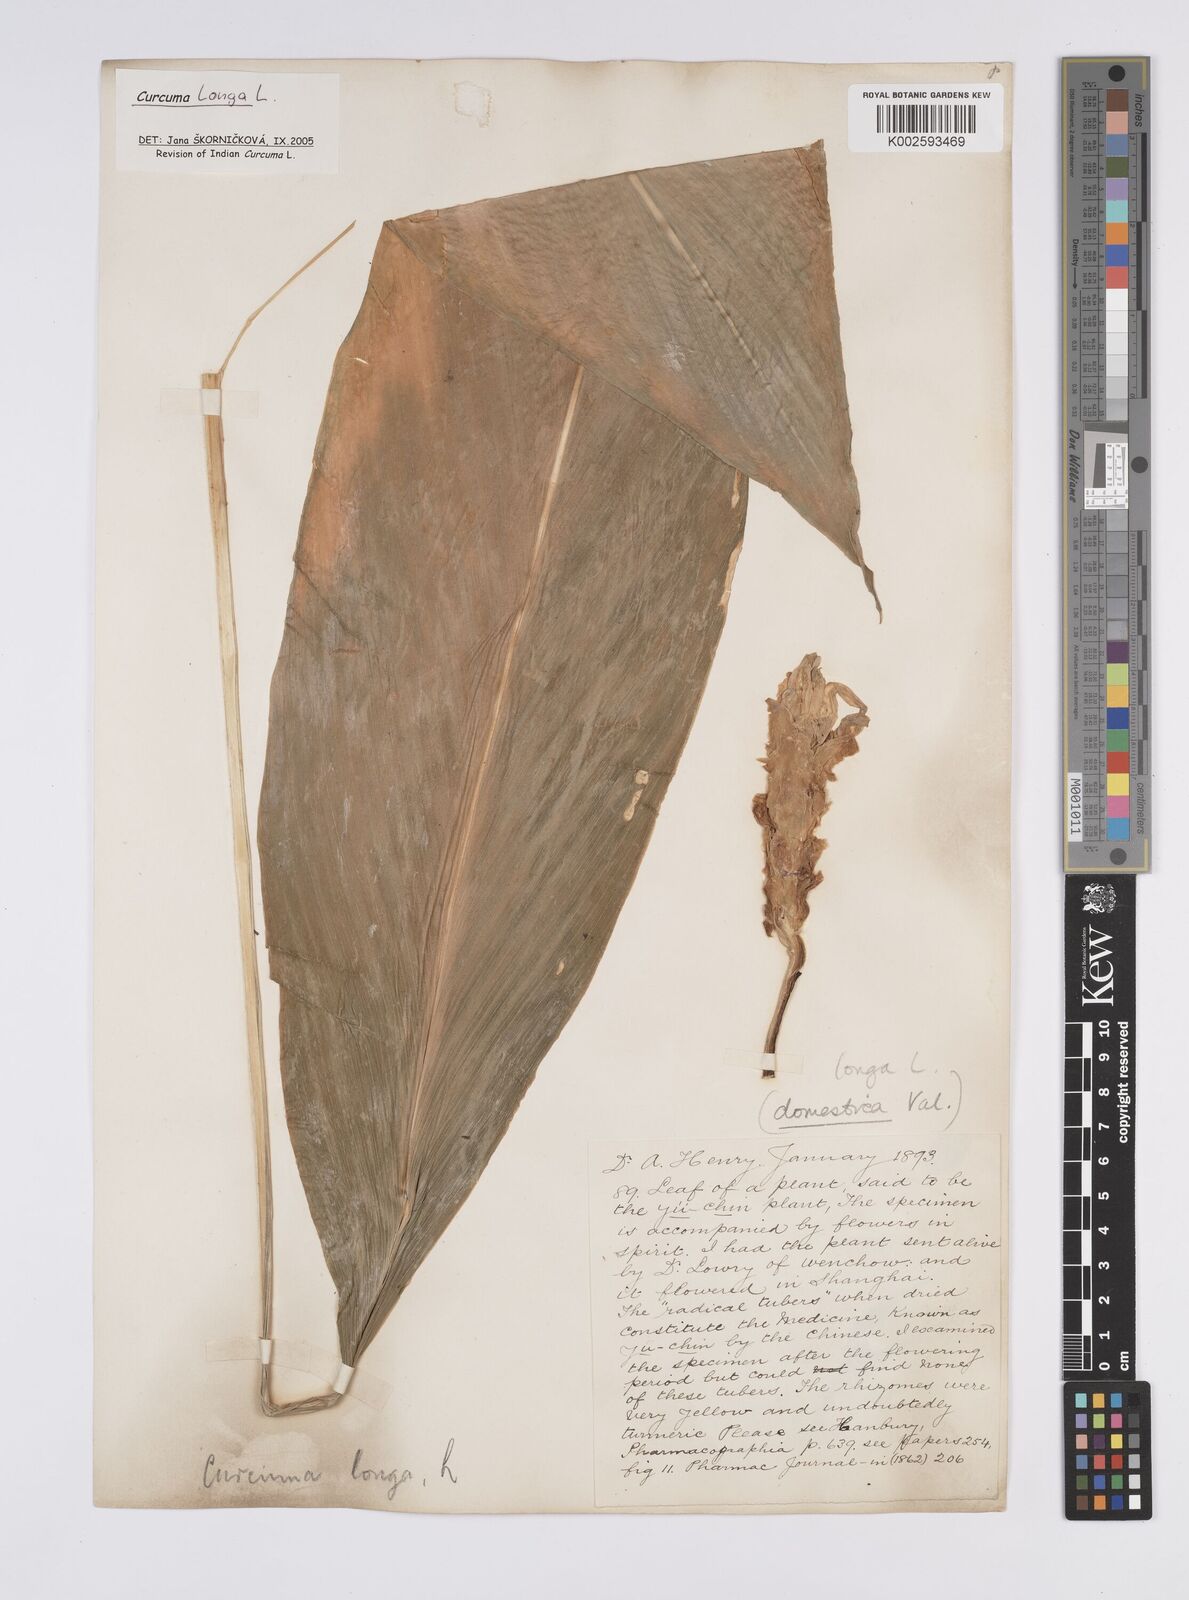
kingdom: Plantae
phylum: Tracheophyta
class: Liliopsida
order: Zingiberales
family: Zingiberaceae
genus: Curcuma
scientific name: Curcuma longa
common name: Turmeric
